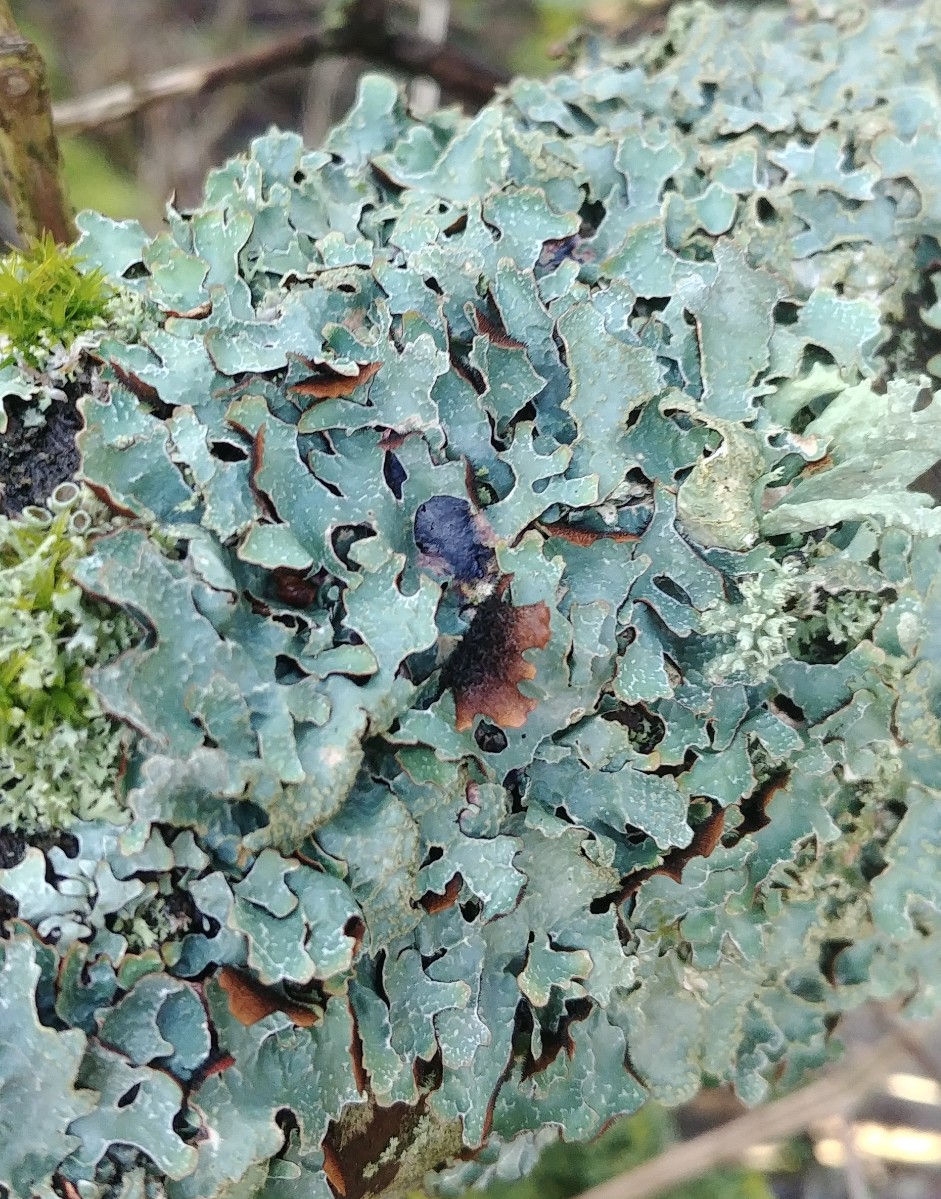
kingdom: Fungi
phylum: Ascomycota
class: Lecanoromycetes
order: Lecanorales
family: Parmeliaceae
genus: Parmelia
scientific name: Parmelia sulcata
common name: rynket skållav
